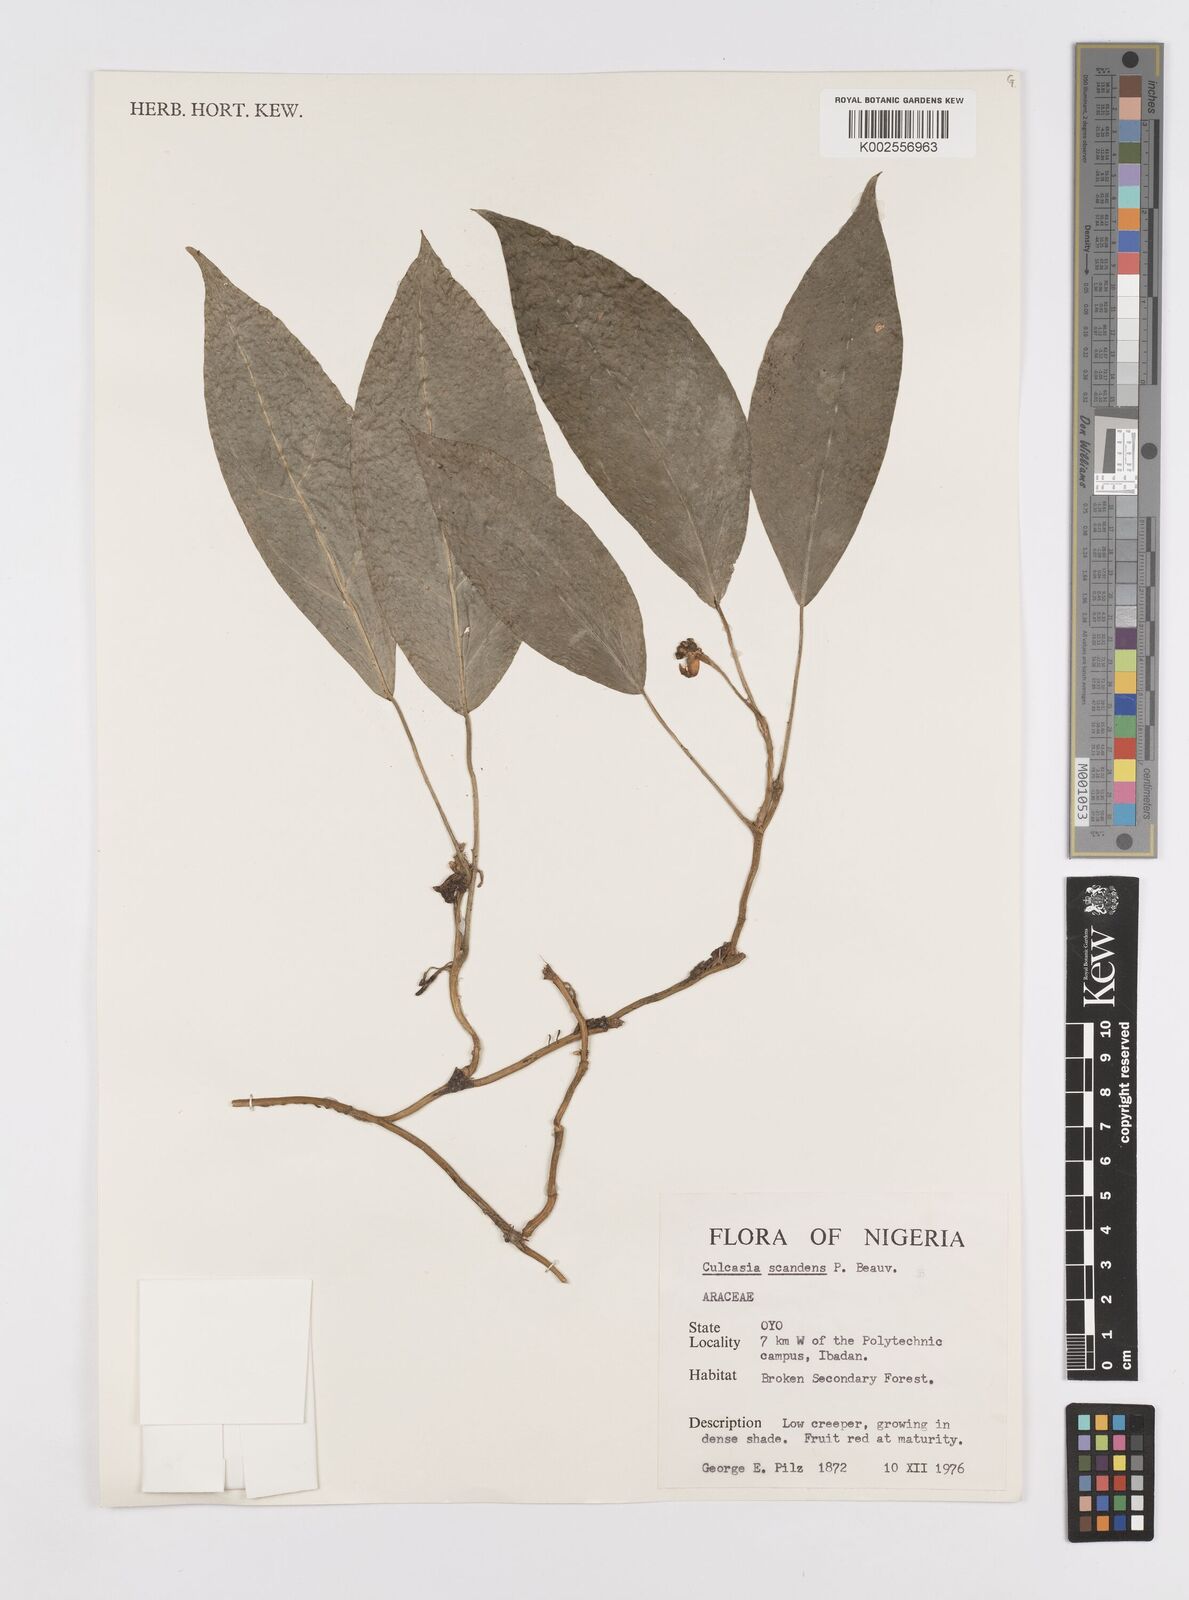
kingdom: Plantae
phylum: Tracheophyta
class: Liliopsida
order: Alismatales
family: Araceae
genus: Culcasia
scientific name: Culcasia scandens
